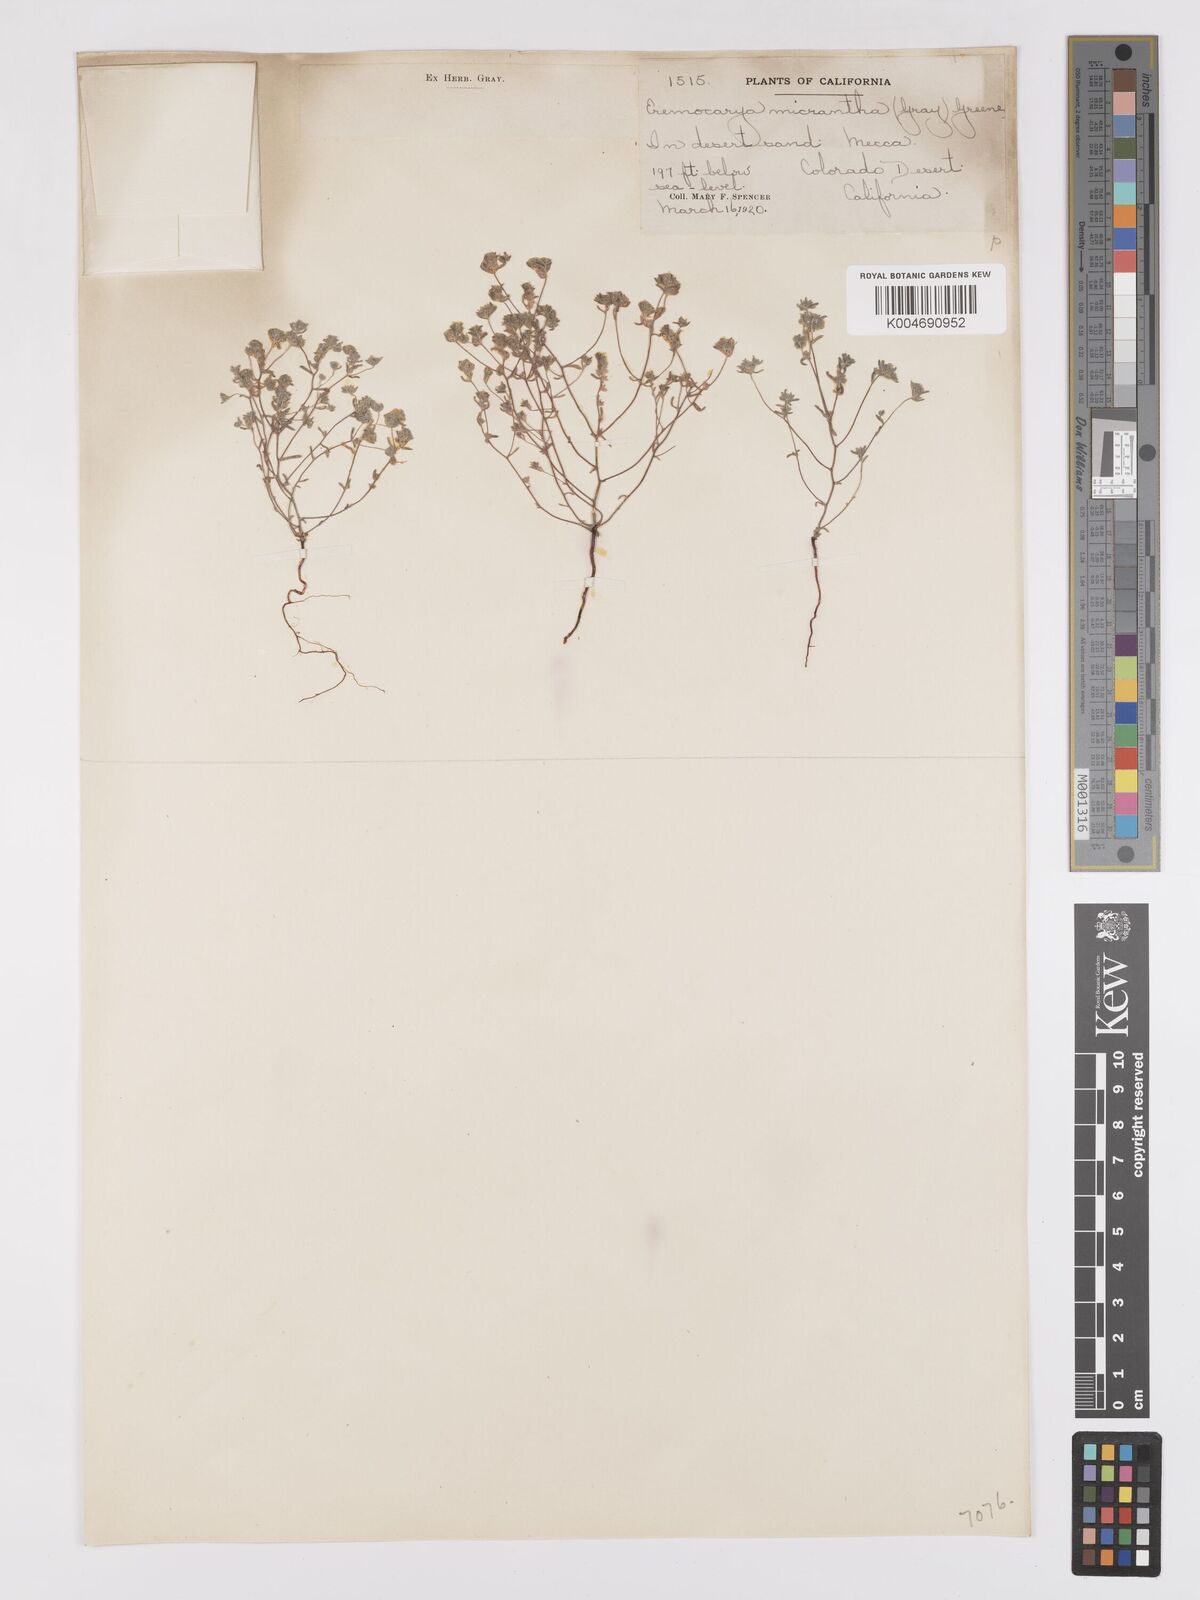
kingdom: Plantae
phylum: Tracheophyta
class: Magnoliopsida
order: Boraginales
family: Boraginaceae
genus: Eremocarya
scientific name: Eremocarya micrantha
